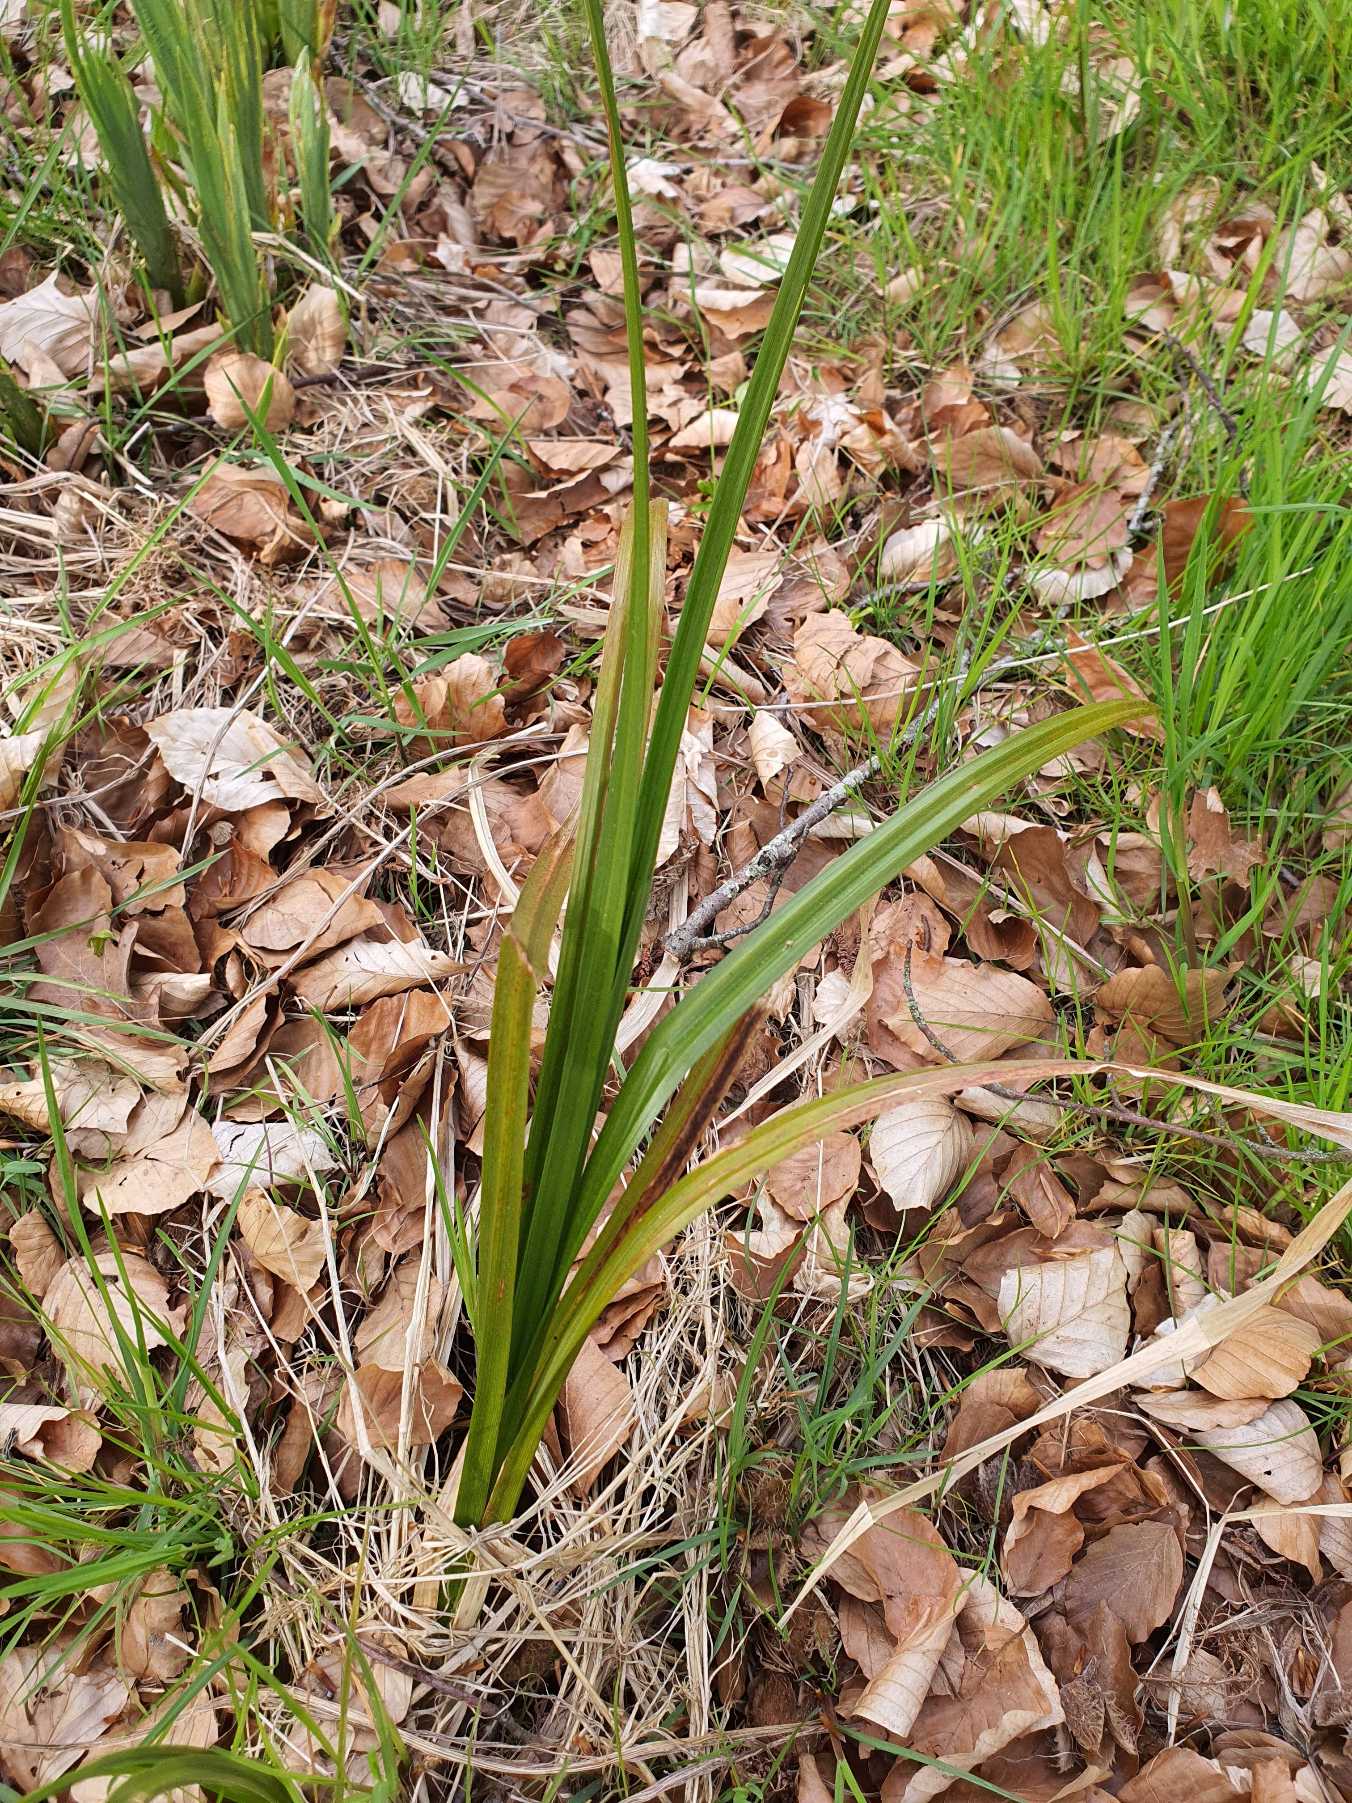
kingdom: Plantae
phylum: Tracheophyta
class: Liliopsida
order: Poales
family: Cyperaceae
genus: Carex
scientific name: Carex pendula
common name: Kæmpe-star
